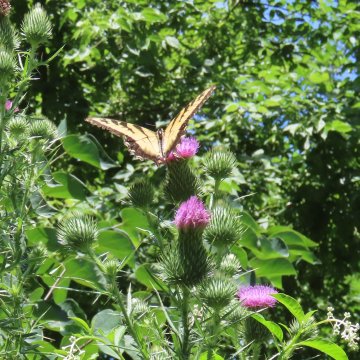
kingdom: Animalia
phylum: Arthropoda
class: Insecta
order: Lepidoptera
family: Papilionidae
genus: Pterourus
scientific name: Pterourus glaucus
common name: Eastern Tiger Swallowtail
